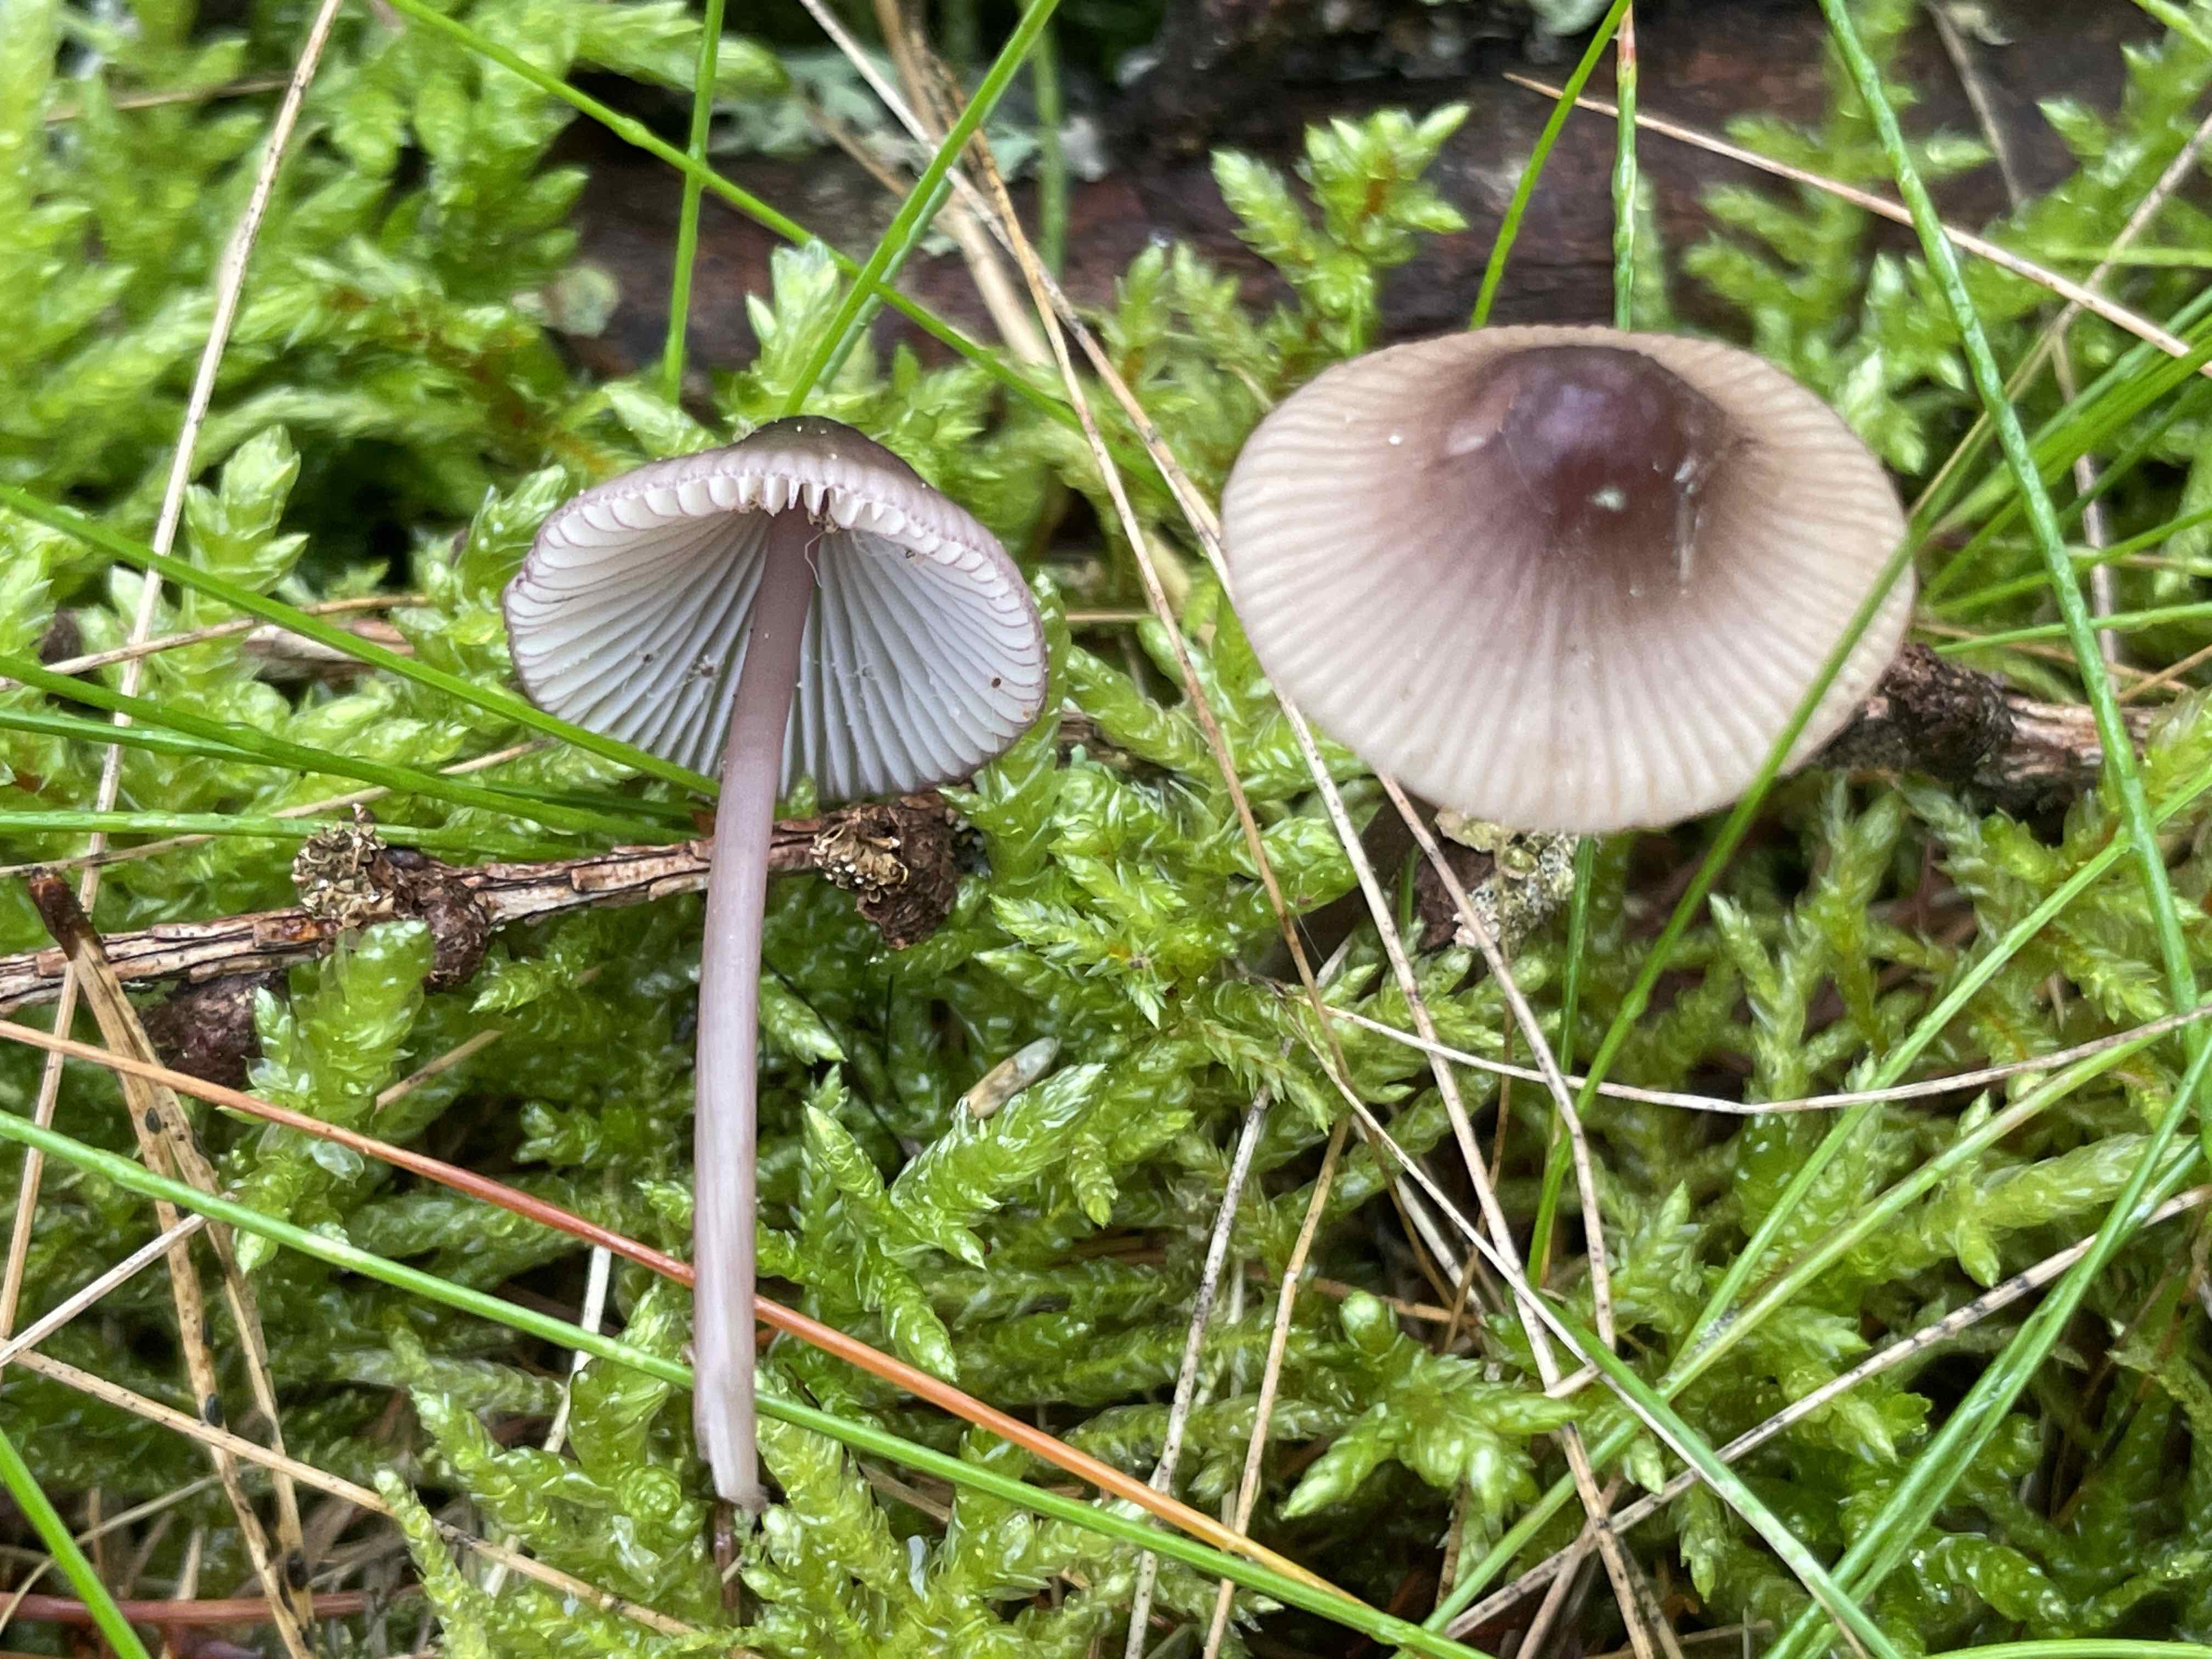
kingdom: Fungi
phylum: Basidiomycota
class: Agaricomycetes
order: Agaricales
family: Mycenaceae
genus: Mycena
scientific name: Mycena purpureofusca
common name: purpur-huesvamp
